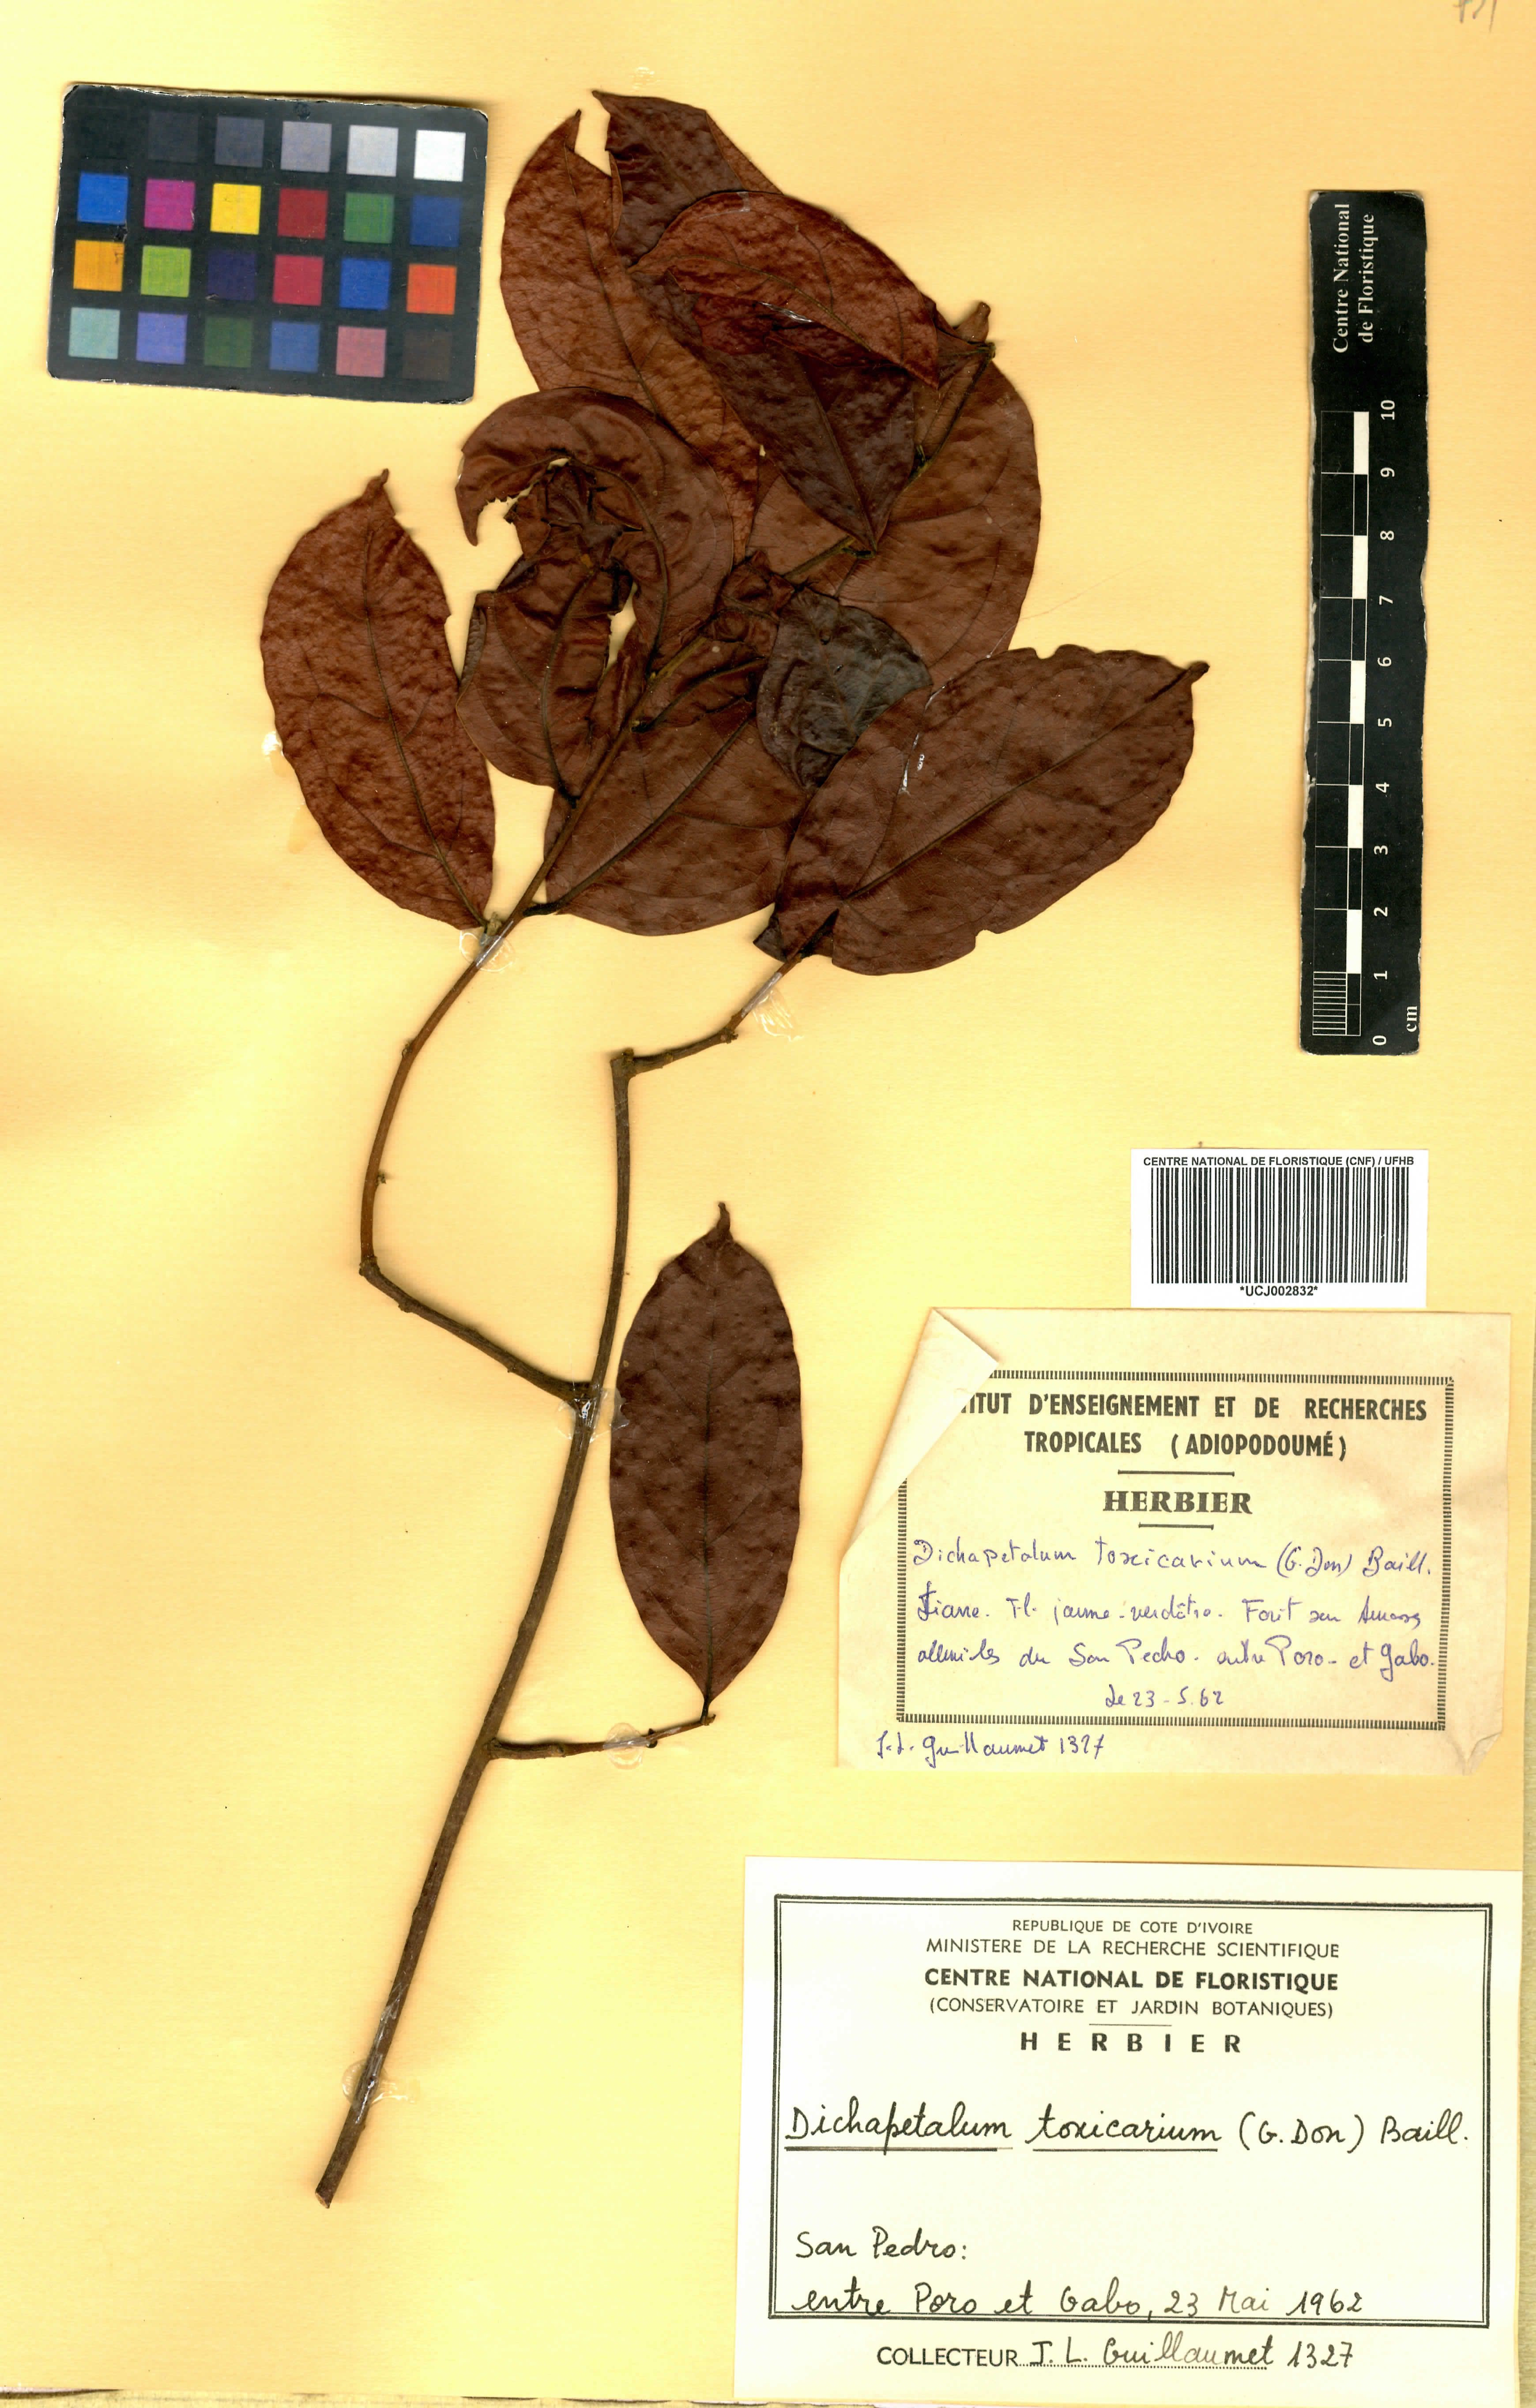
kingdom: Plantae
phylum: Tracheophyta
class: Magnoliopsida
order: Malpighiales
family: Dichapetalaceae
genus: Dichapetalum
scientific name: Dichapetalum toxicarium
